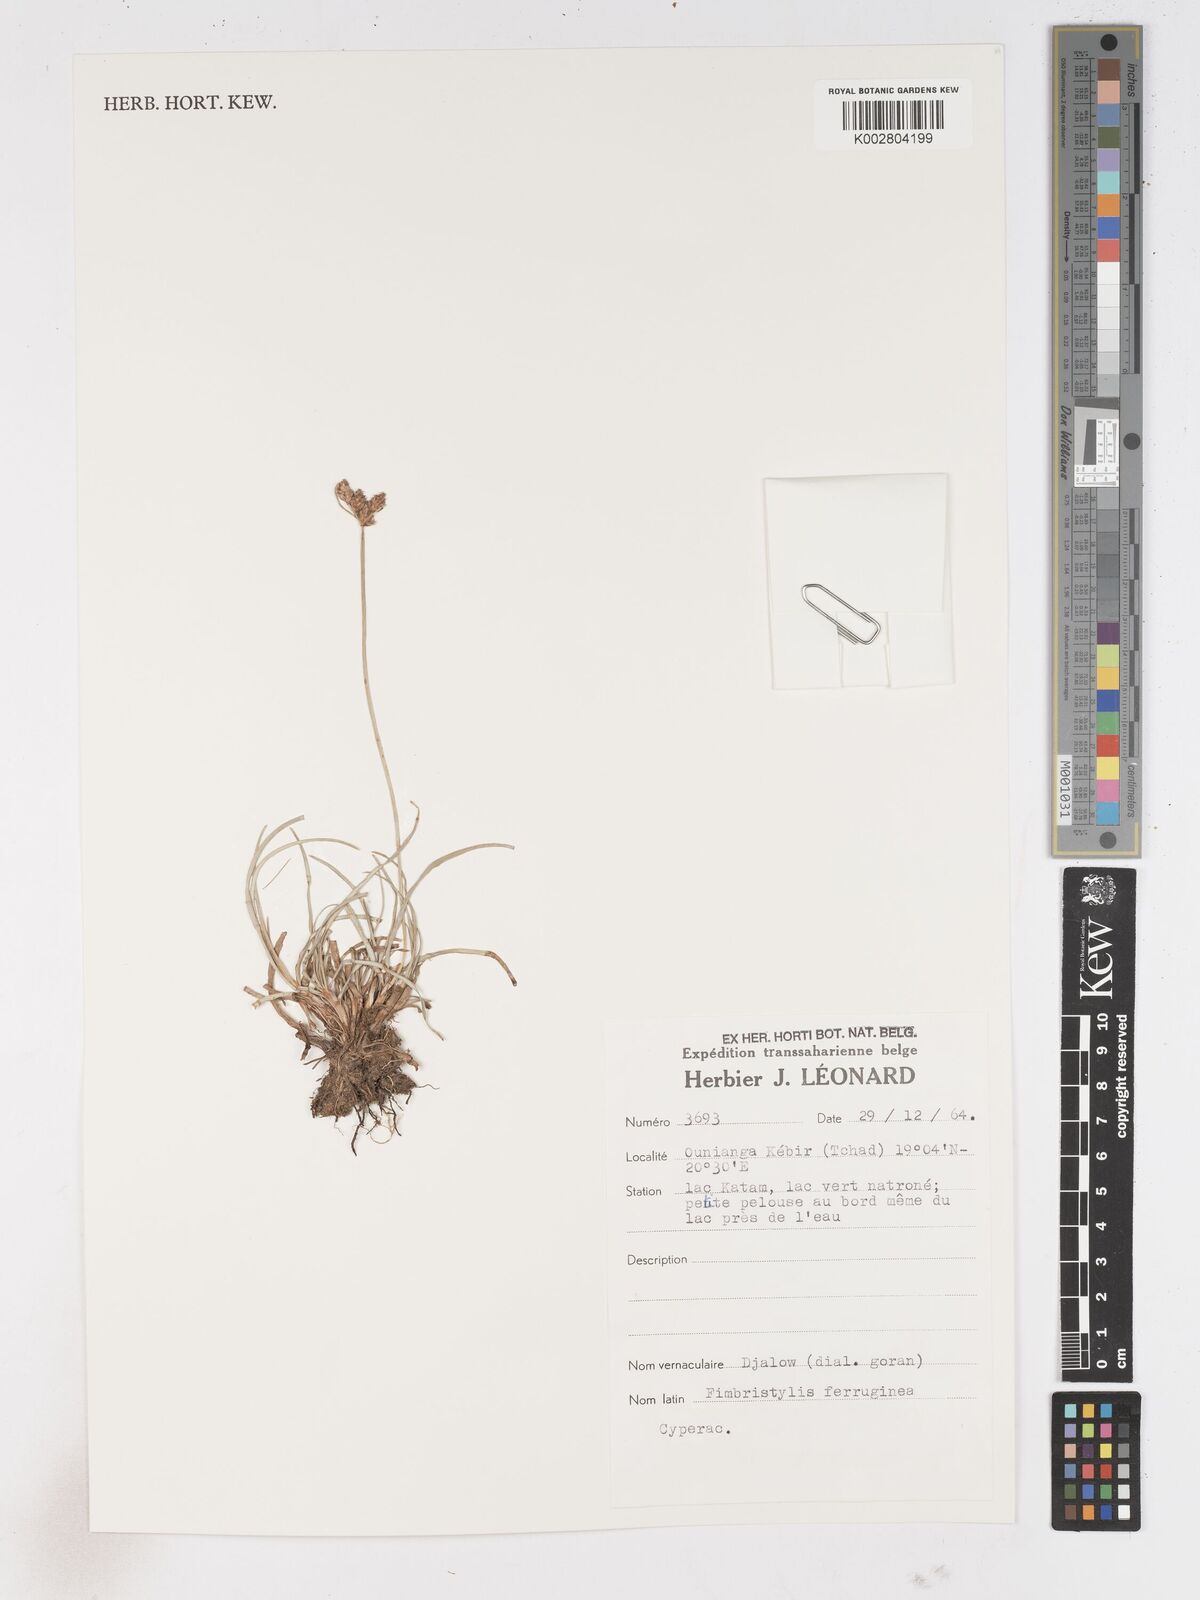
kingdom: Plantae
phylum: Tracheophyta
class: Liliopsida
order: Poales
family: Cyperaceae
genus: Fimbristylis
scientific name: Fimbristylis ferruginea
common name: West indian fimbry
